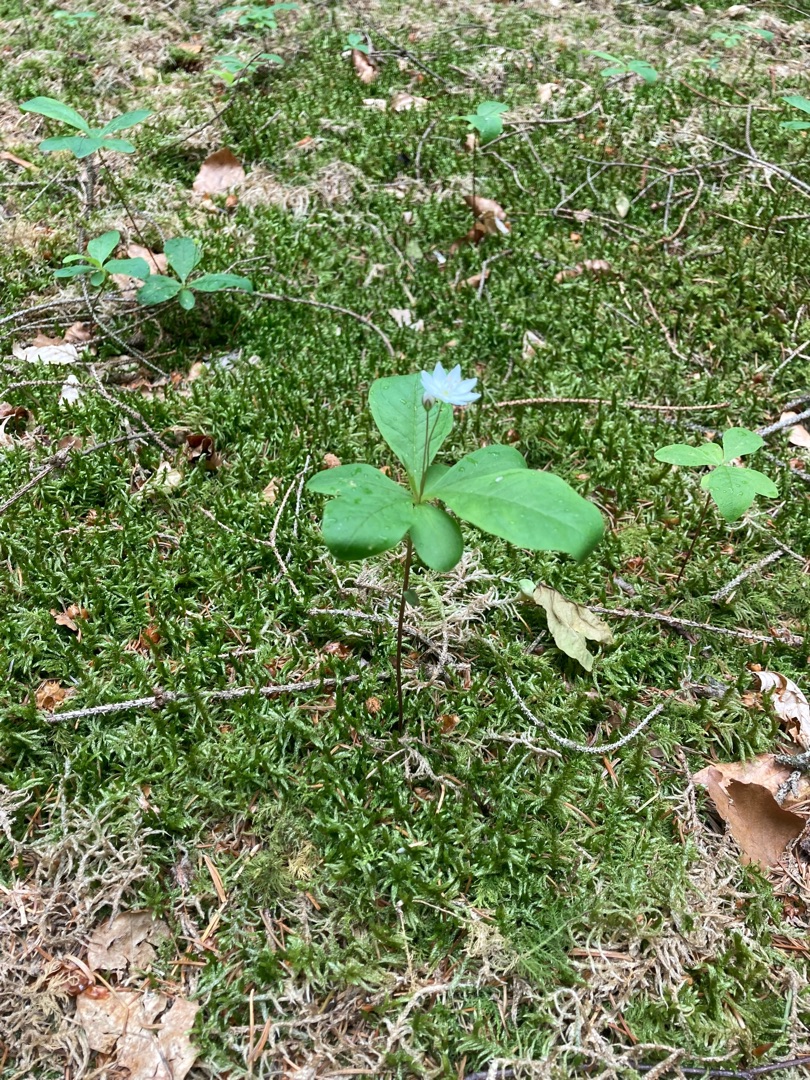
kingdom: Plantae
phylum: Tracheophyta
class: Magnoliopsida
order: Ericales
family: Primulaceae
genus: Lysimachia
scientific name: Lysimachia europaea
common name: Skovstjerne
